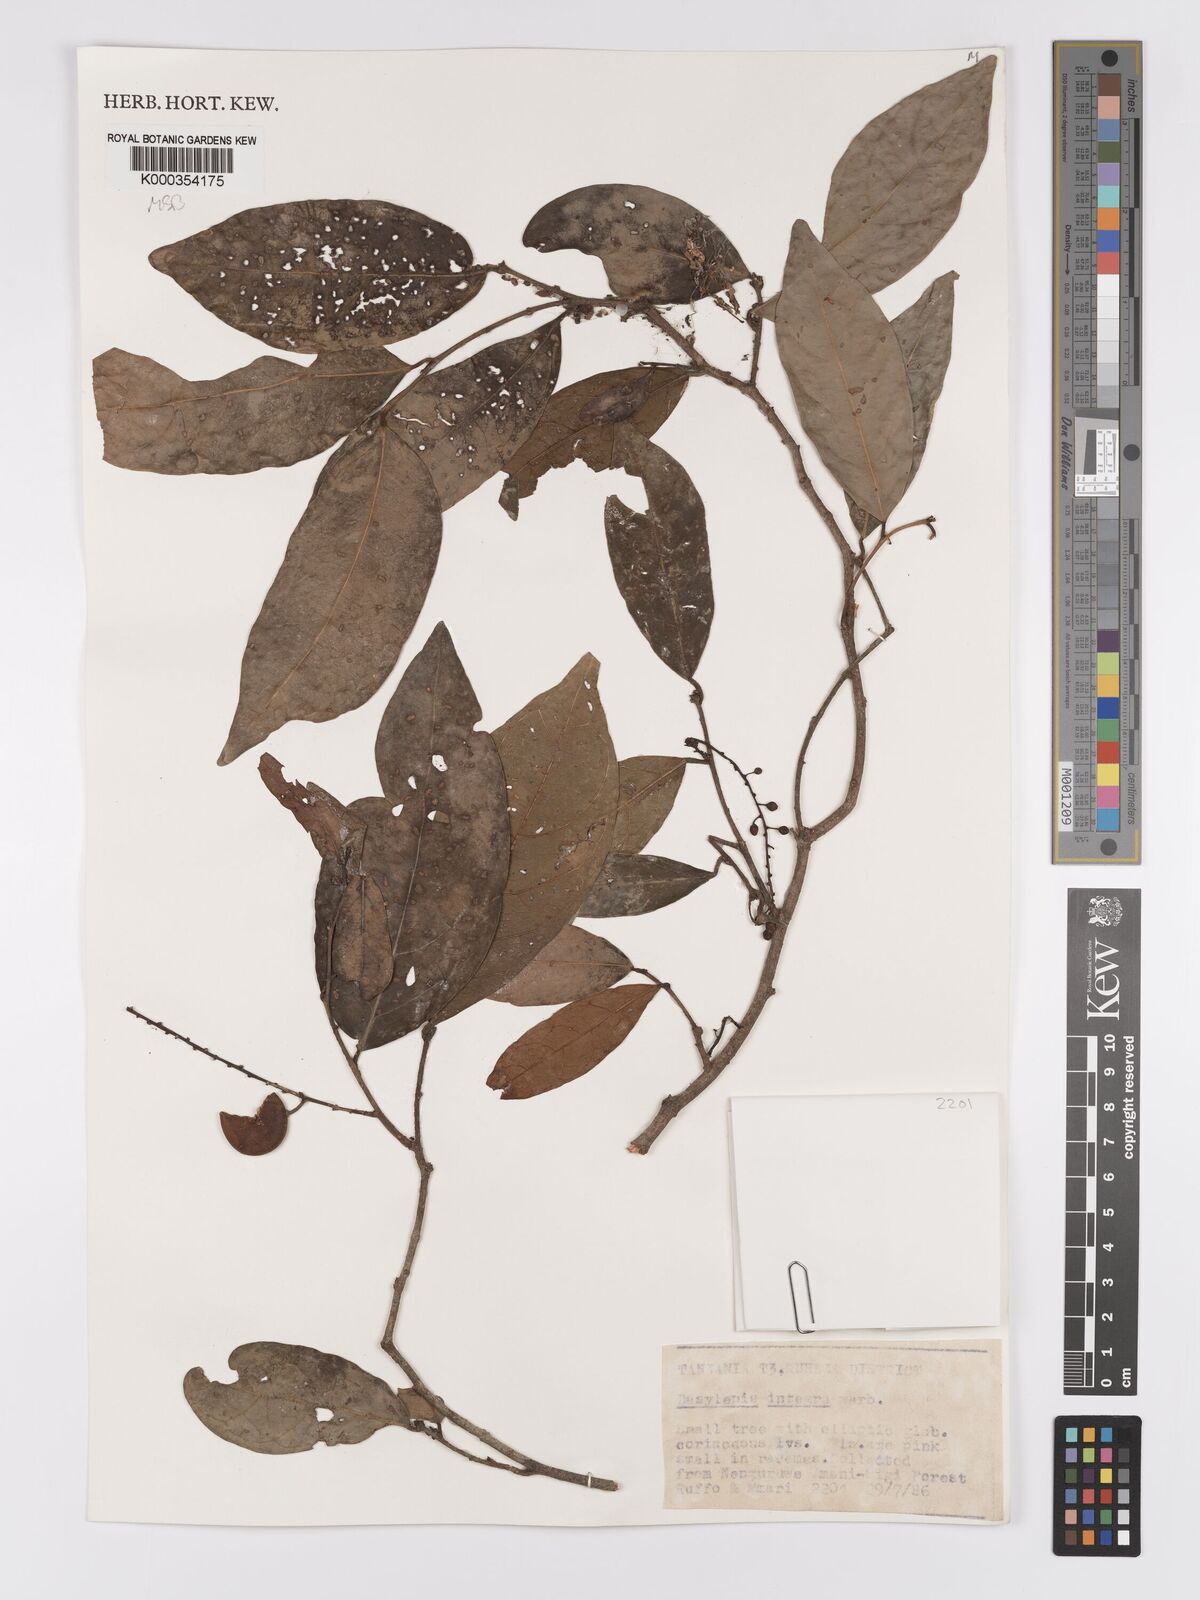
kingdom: Plantae
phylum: Tracheophyta
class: Magnoliopsida
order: Malpighiales
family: Achariaceae
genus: Dasylepis
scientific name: Dasylepis integra
